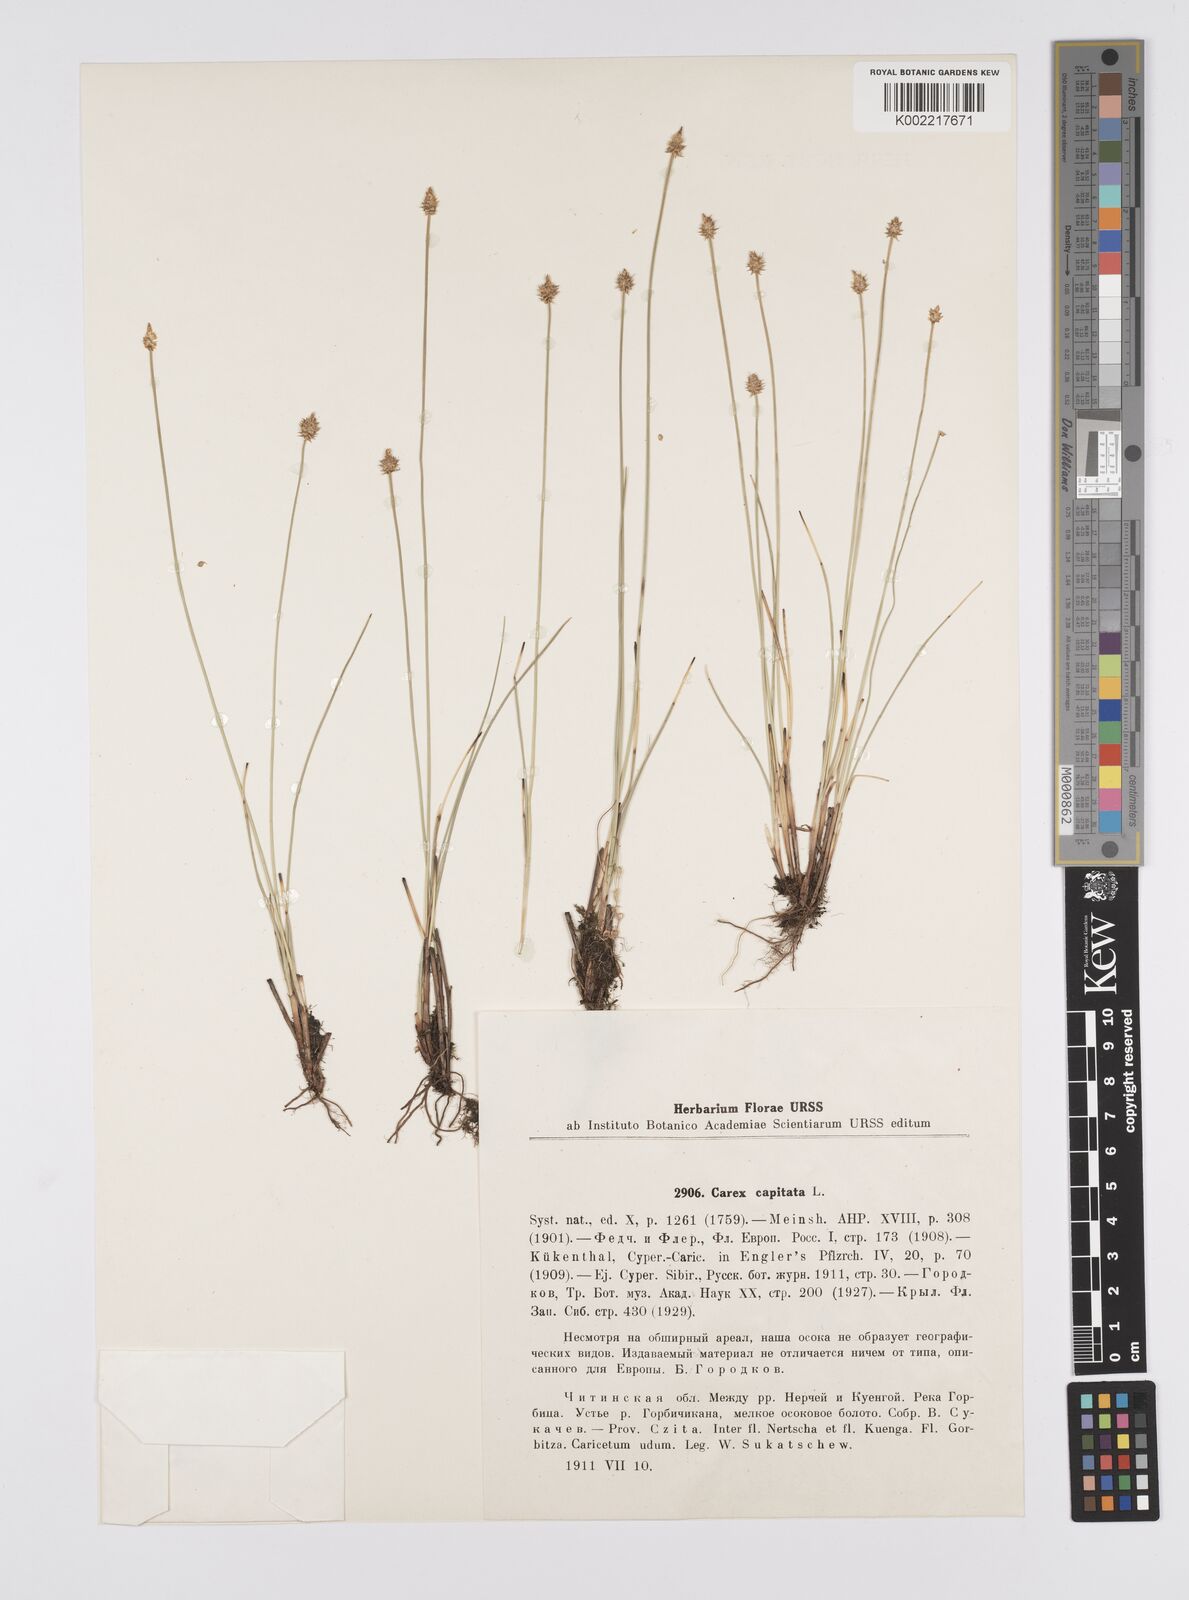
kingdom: Plantae
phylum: Tracheophyta
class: Liliopsida
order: Poales
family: Cyperaceae
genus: Carex
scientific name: Carex capitata
